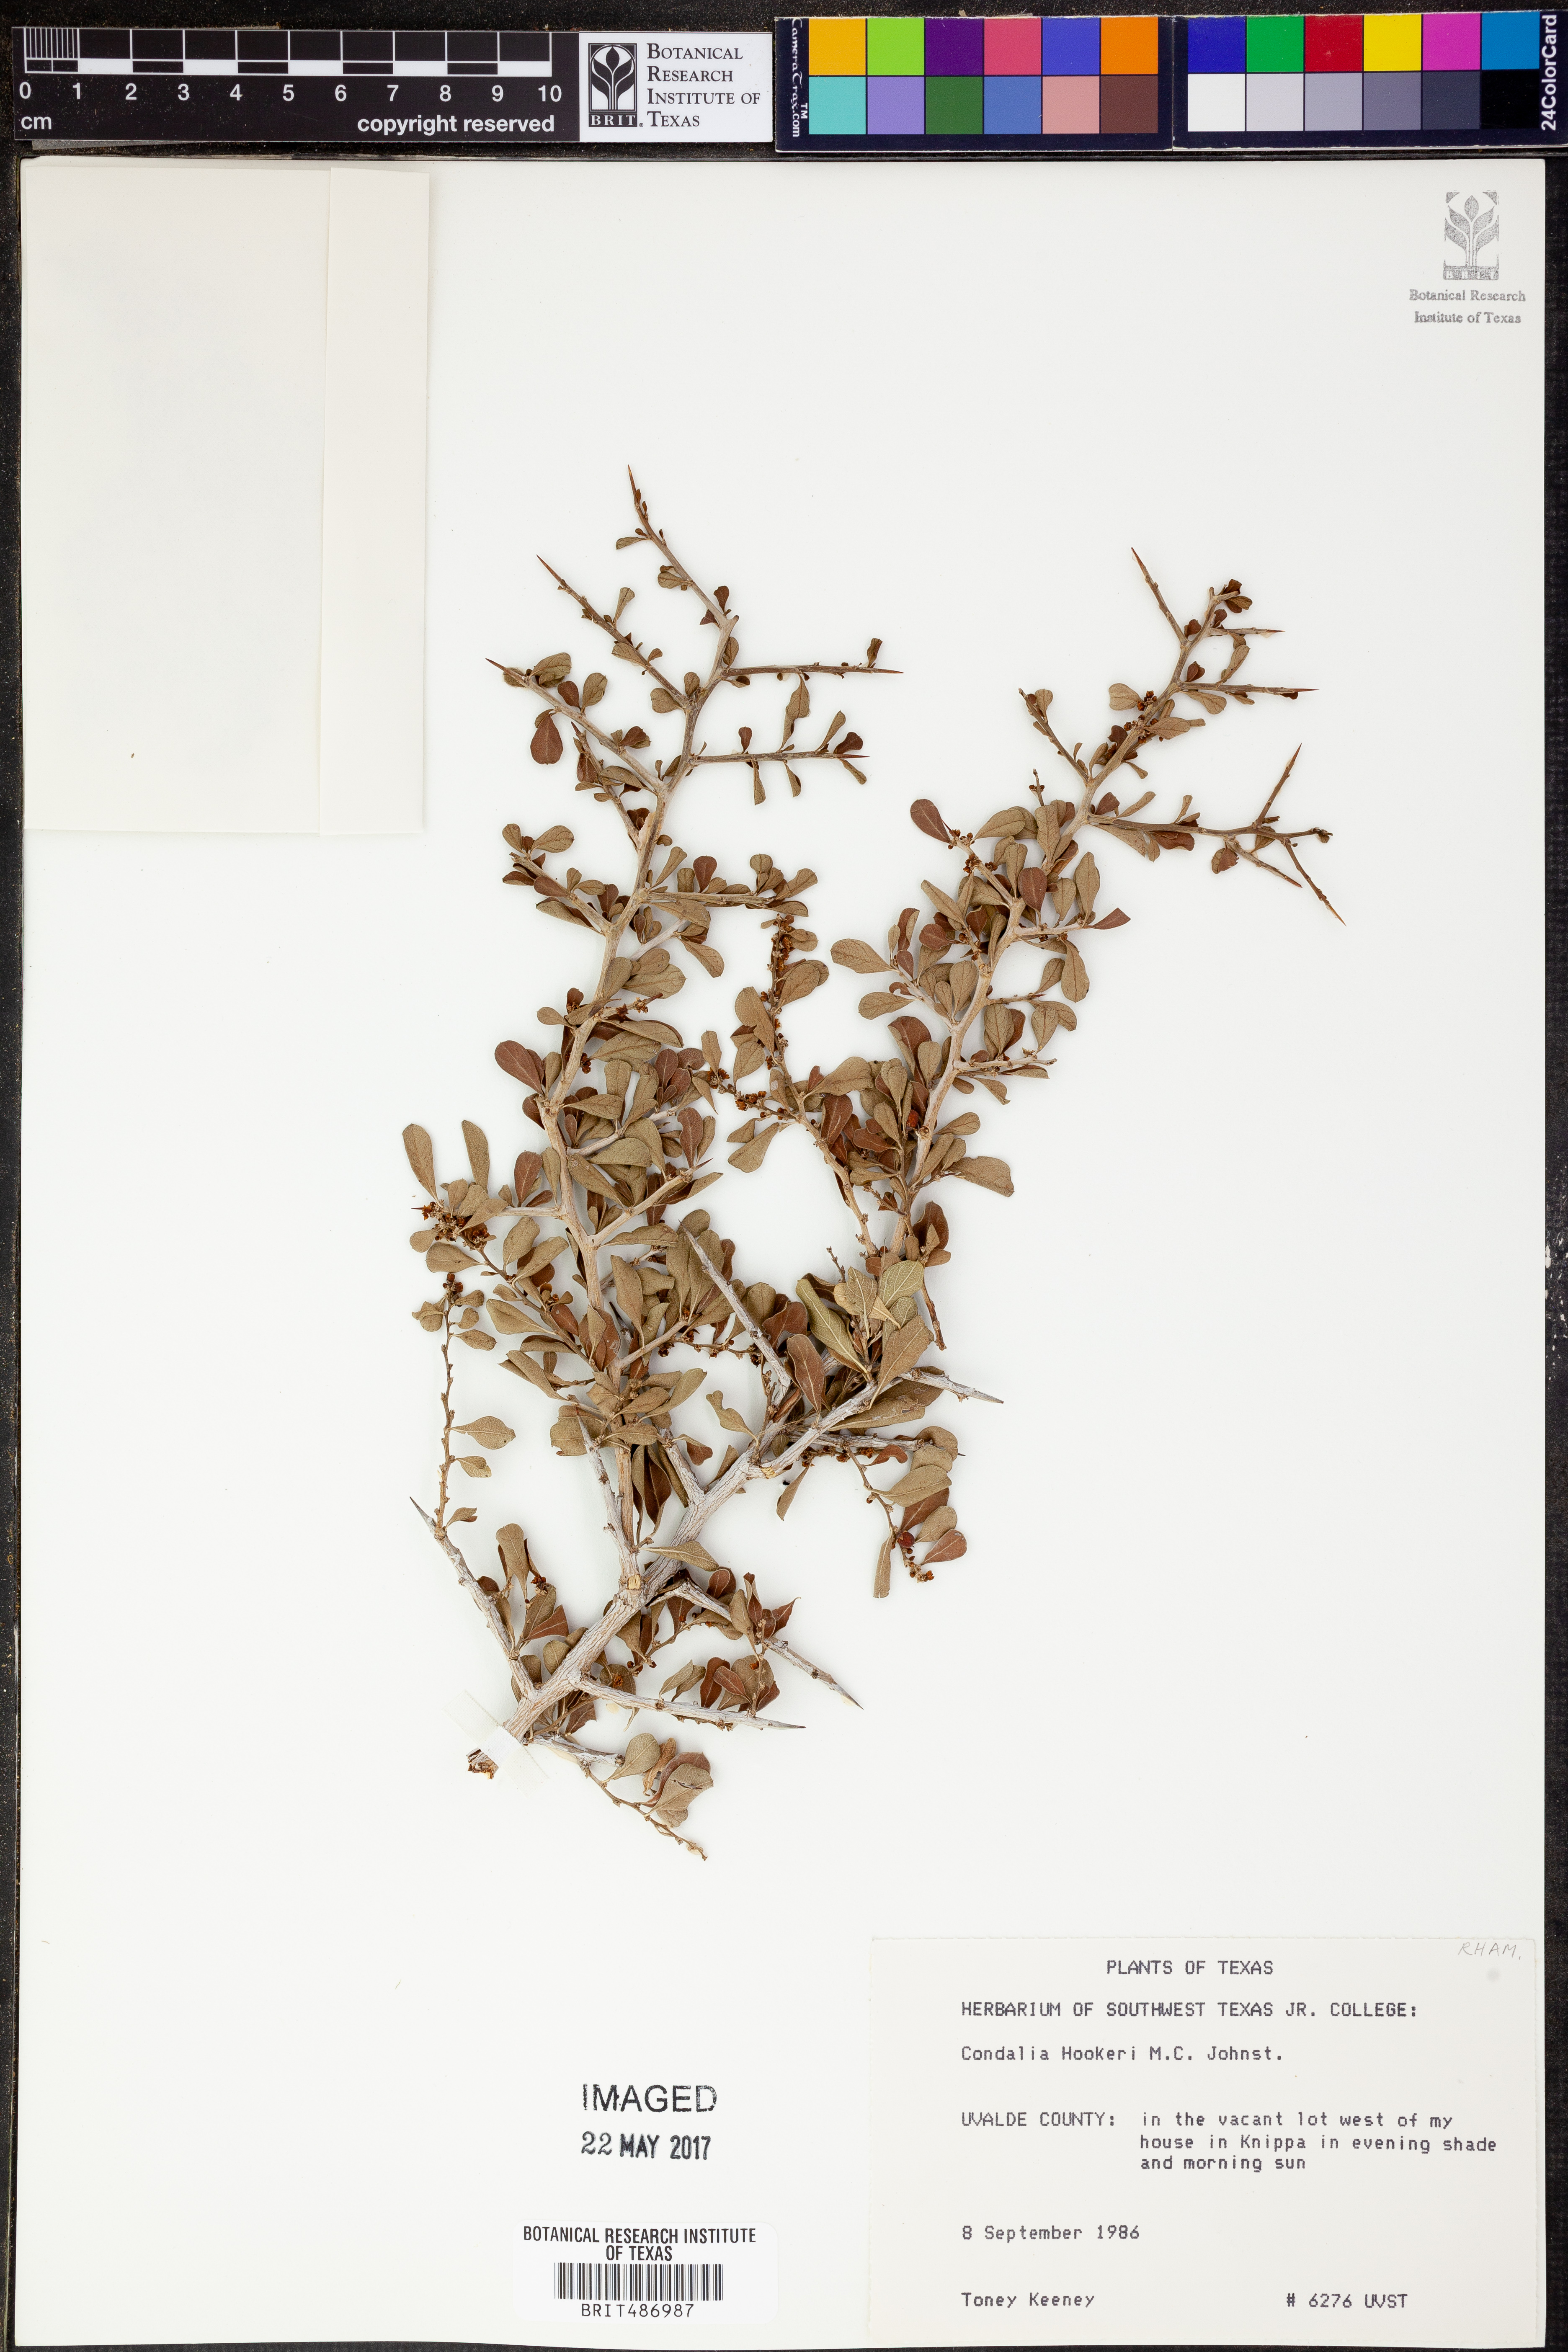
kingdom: Plantae
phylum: Tracheophyta
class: Magnoliopsida
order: Rosales
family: Rhamnaceae
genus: Condalia
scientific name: Condalia hookeri
